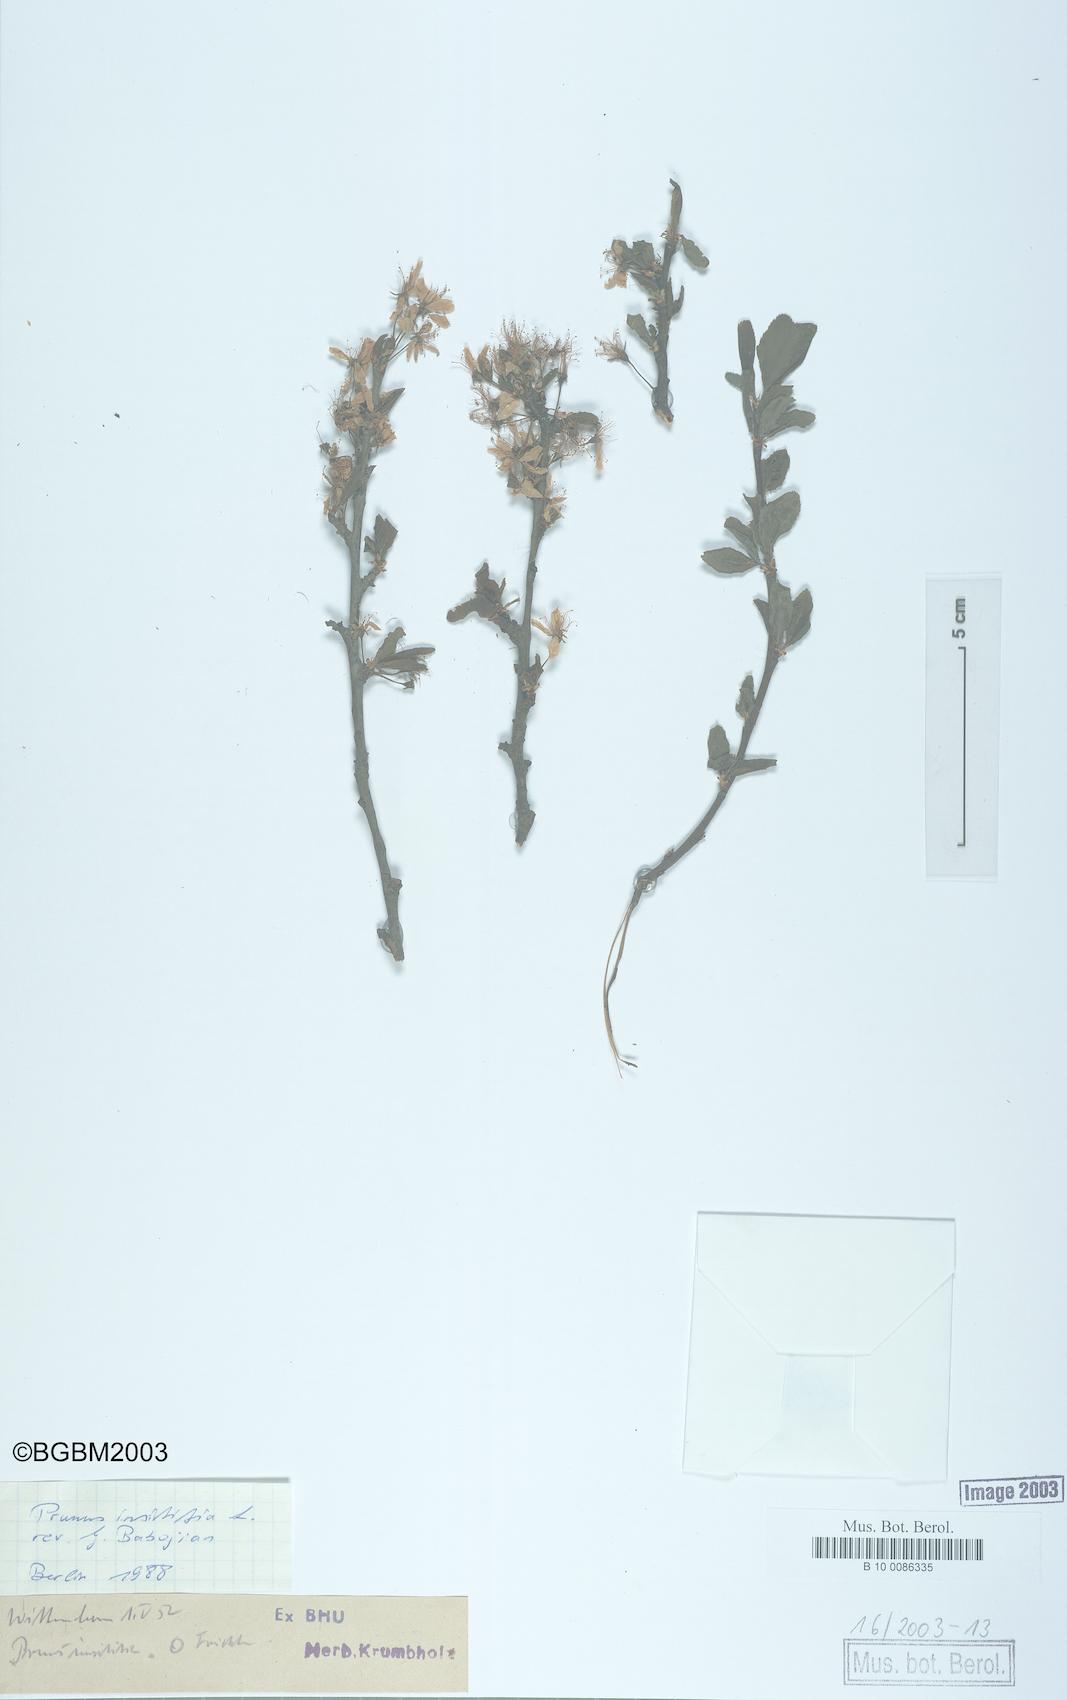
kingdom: Plantae
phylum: Tracheophyta
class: Magnoliopsida
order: Rosales
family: Rosaceae
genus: Prunus
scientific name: Prunus domestica
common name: Wild plum
